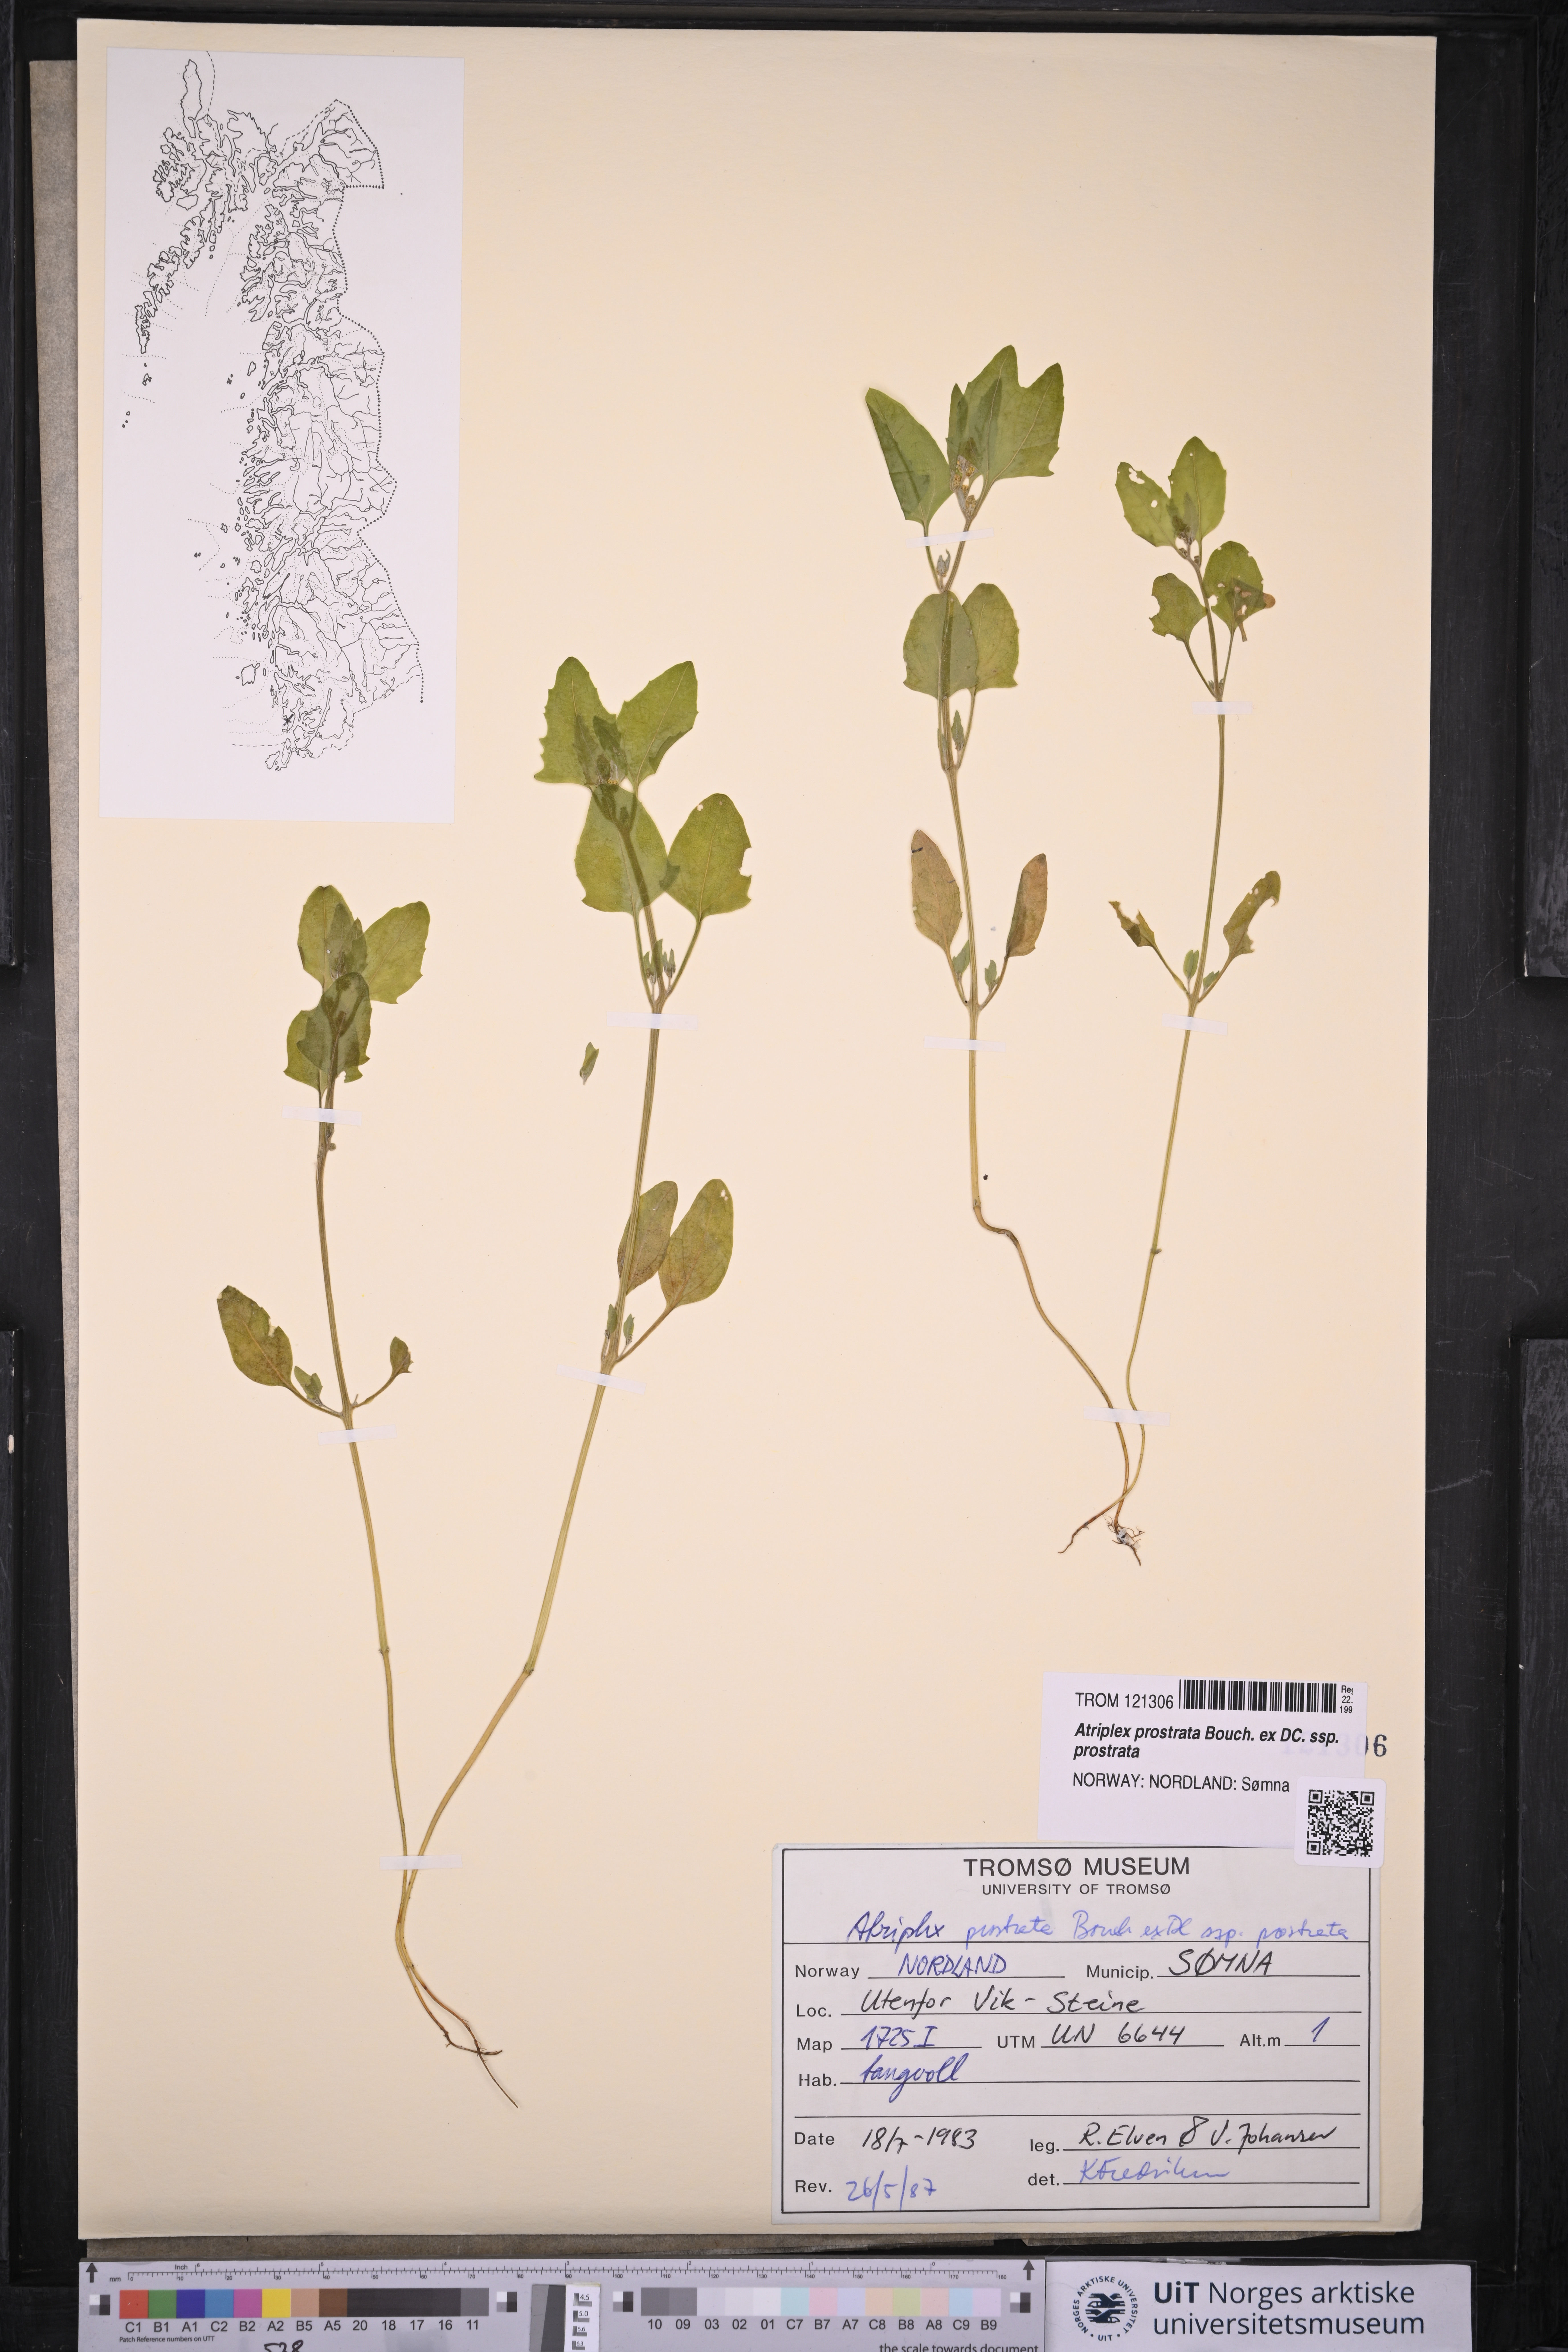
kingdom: Plantae
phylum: Tracheophyta
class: Magnoliopsida
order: Caryophyllales
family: Amaranthaceae
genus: Atriplex
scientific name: Atriplex prostrata
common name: Spear-leaved orache
